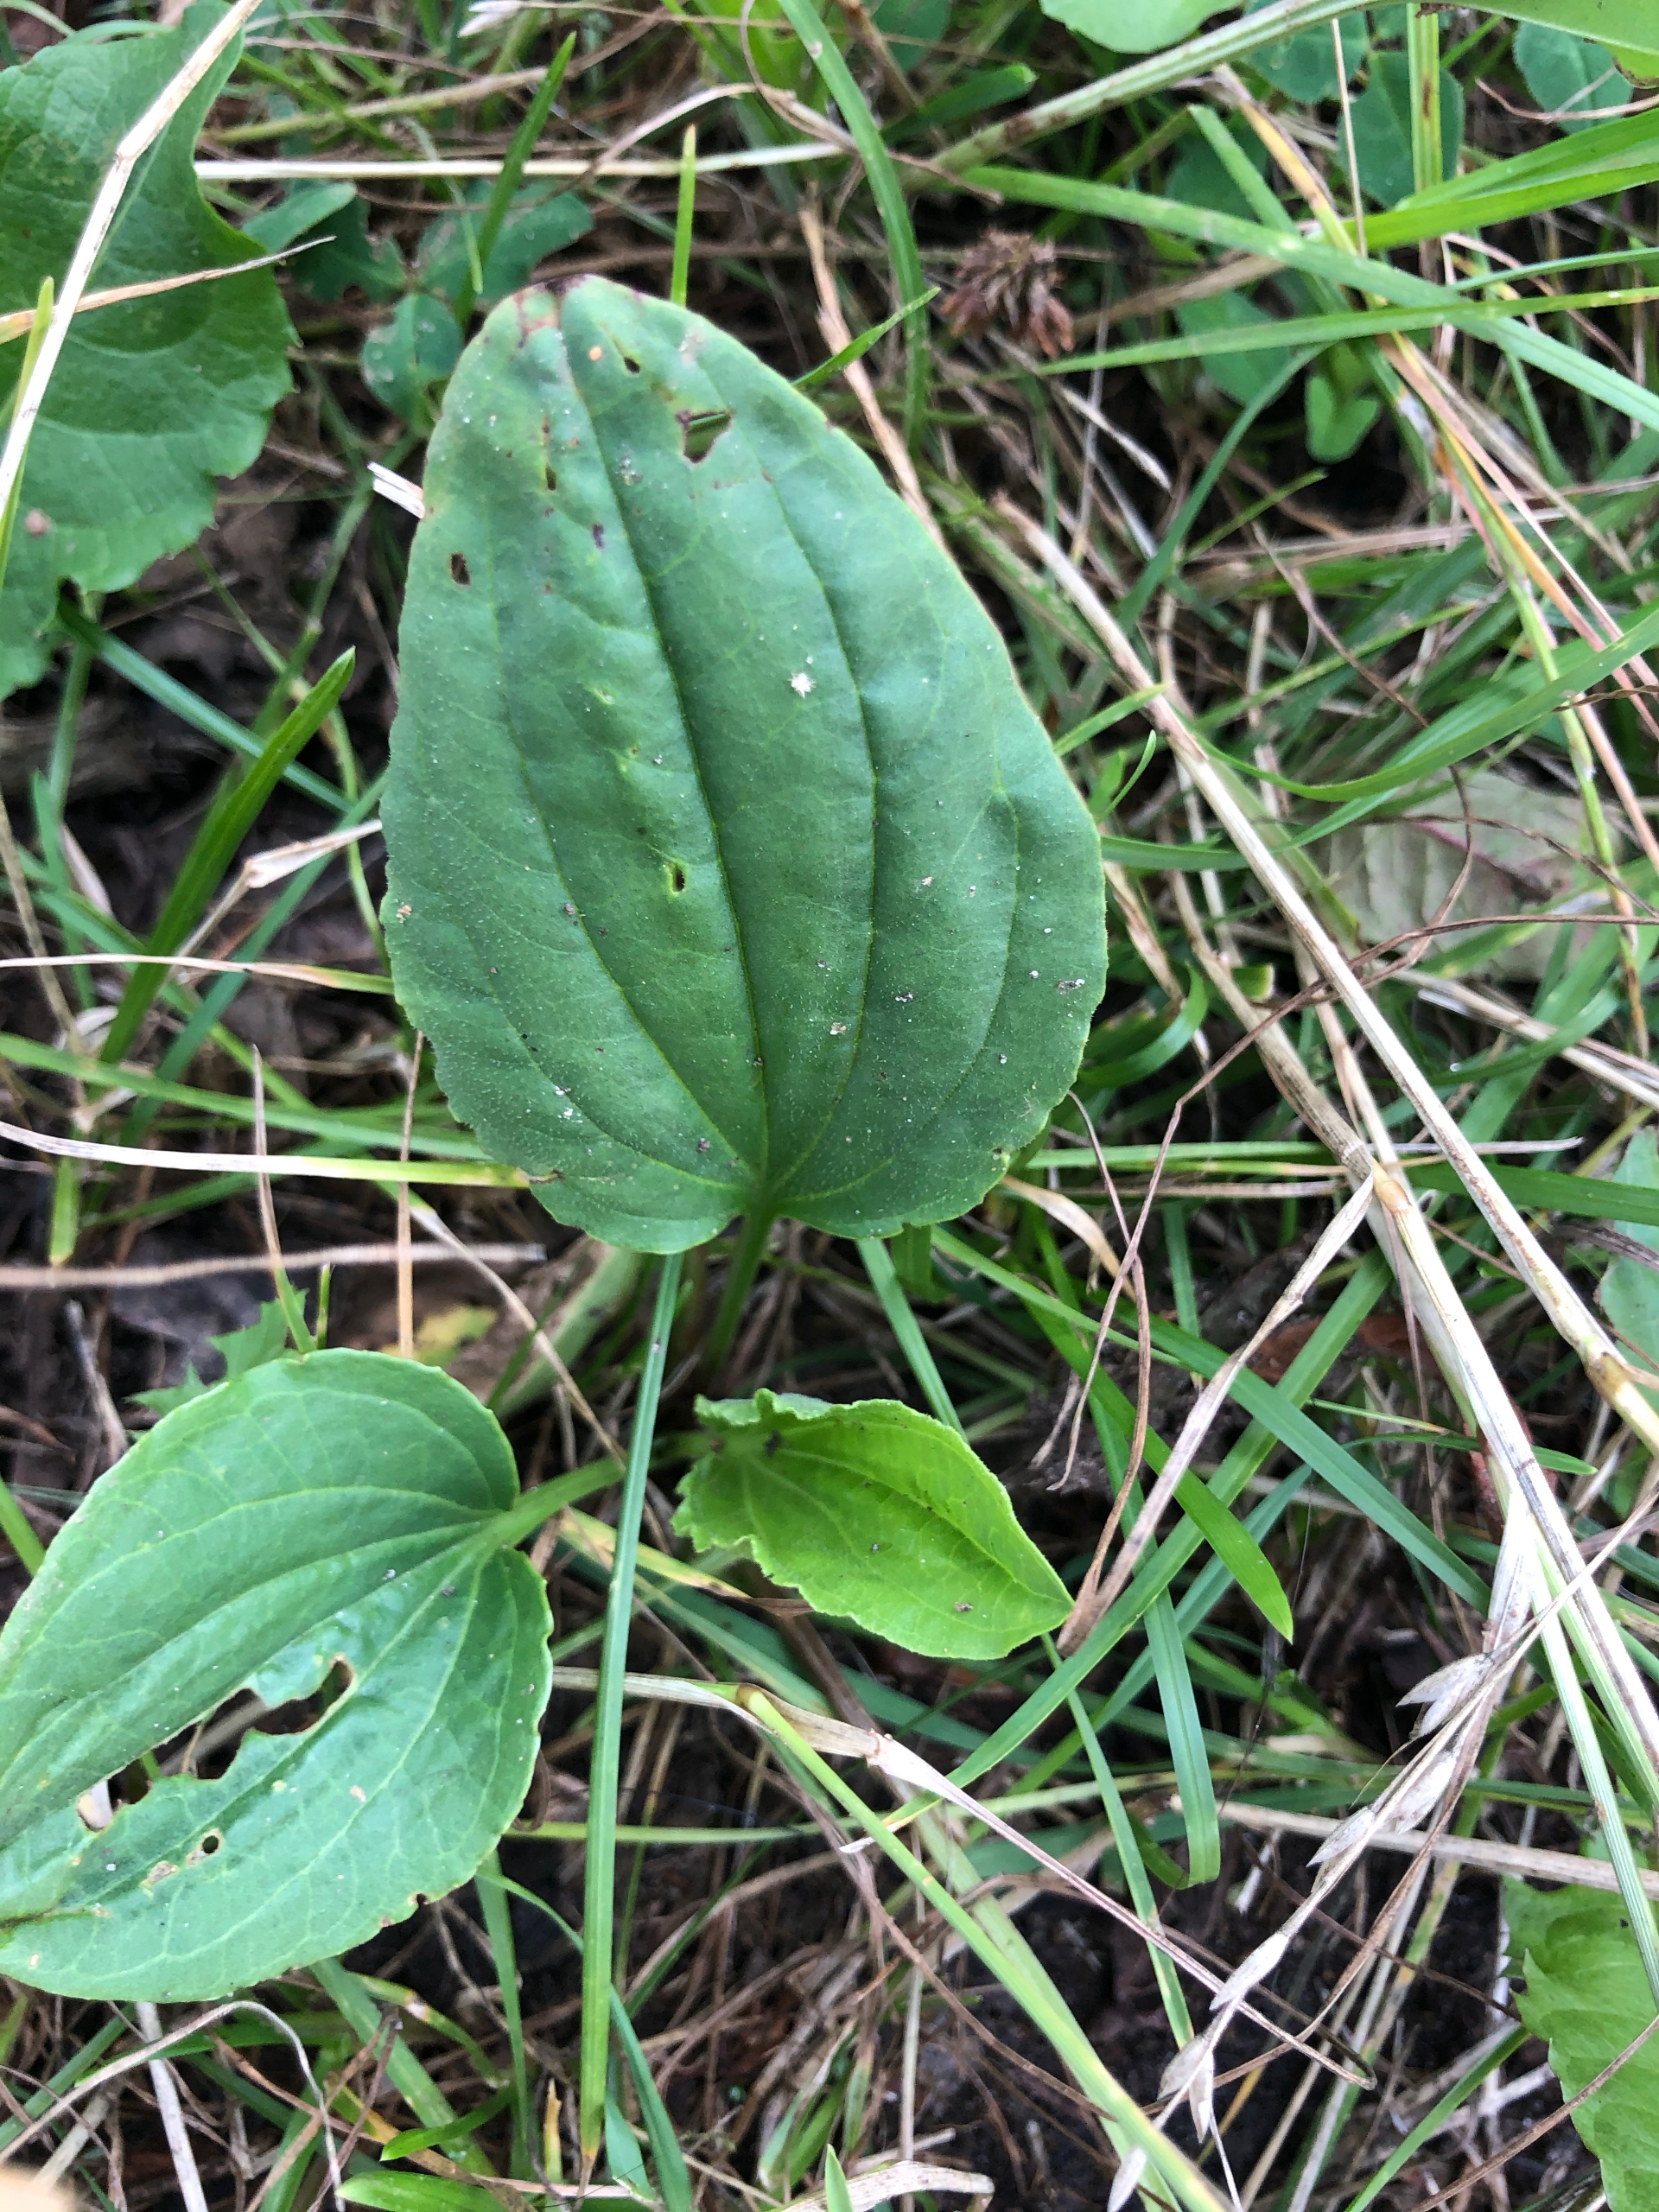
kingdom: Plantae
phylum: Tracheophyta
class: Magnoliopsida
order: Lamiales
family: Plantaginaceae
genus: Plantago
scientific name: Plantago major
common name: Glat vejbred
